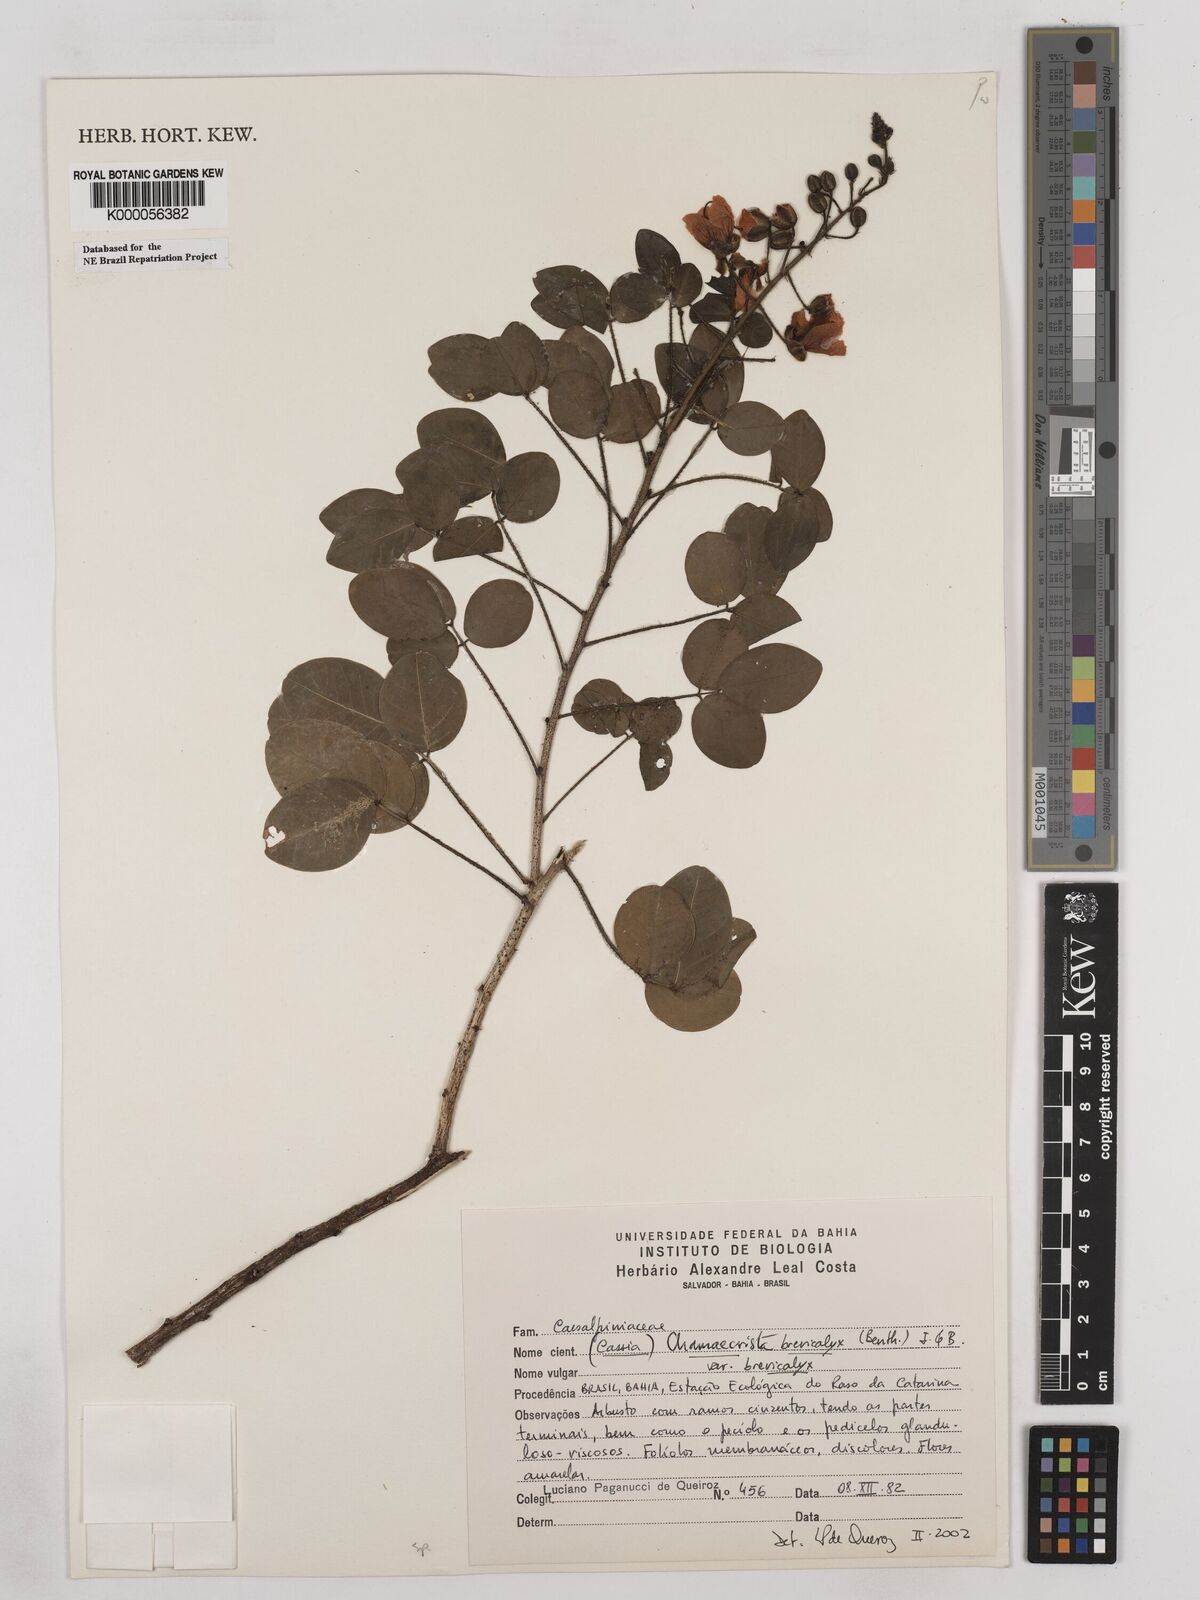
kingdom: Plantae
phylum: Tracheophyta
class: Magnoliopsida
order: Fabales
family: Fabaceae
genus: Chamaecrista
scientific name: Chamaecrista brevicalyx
